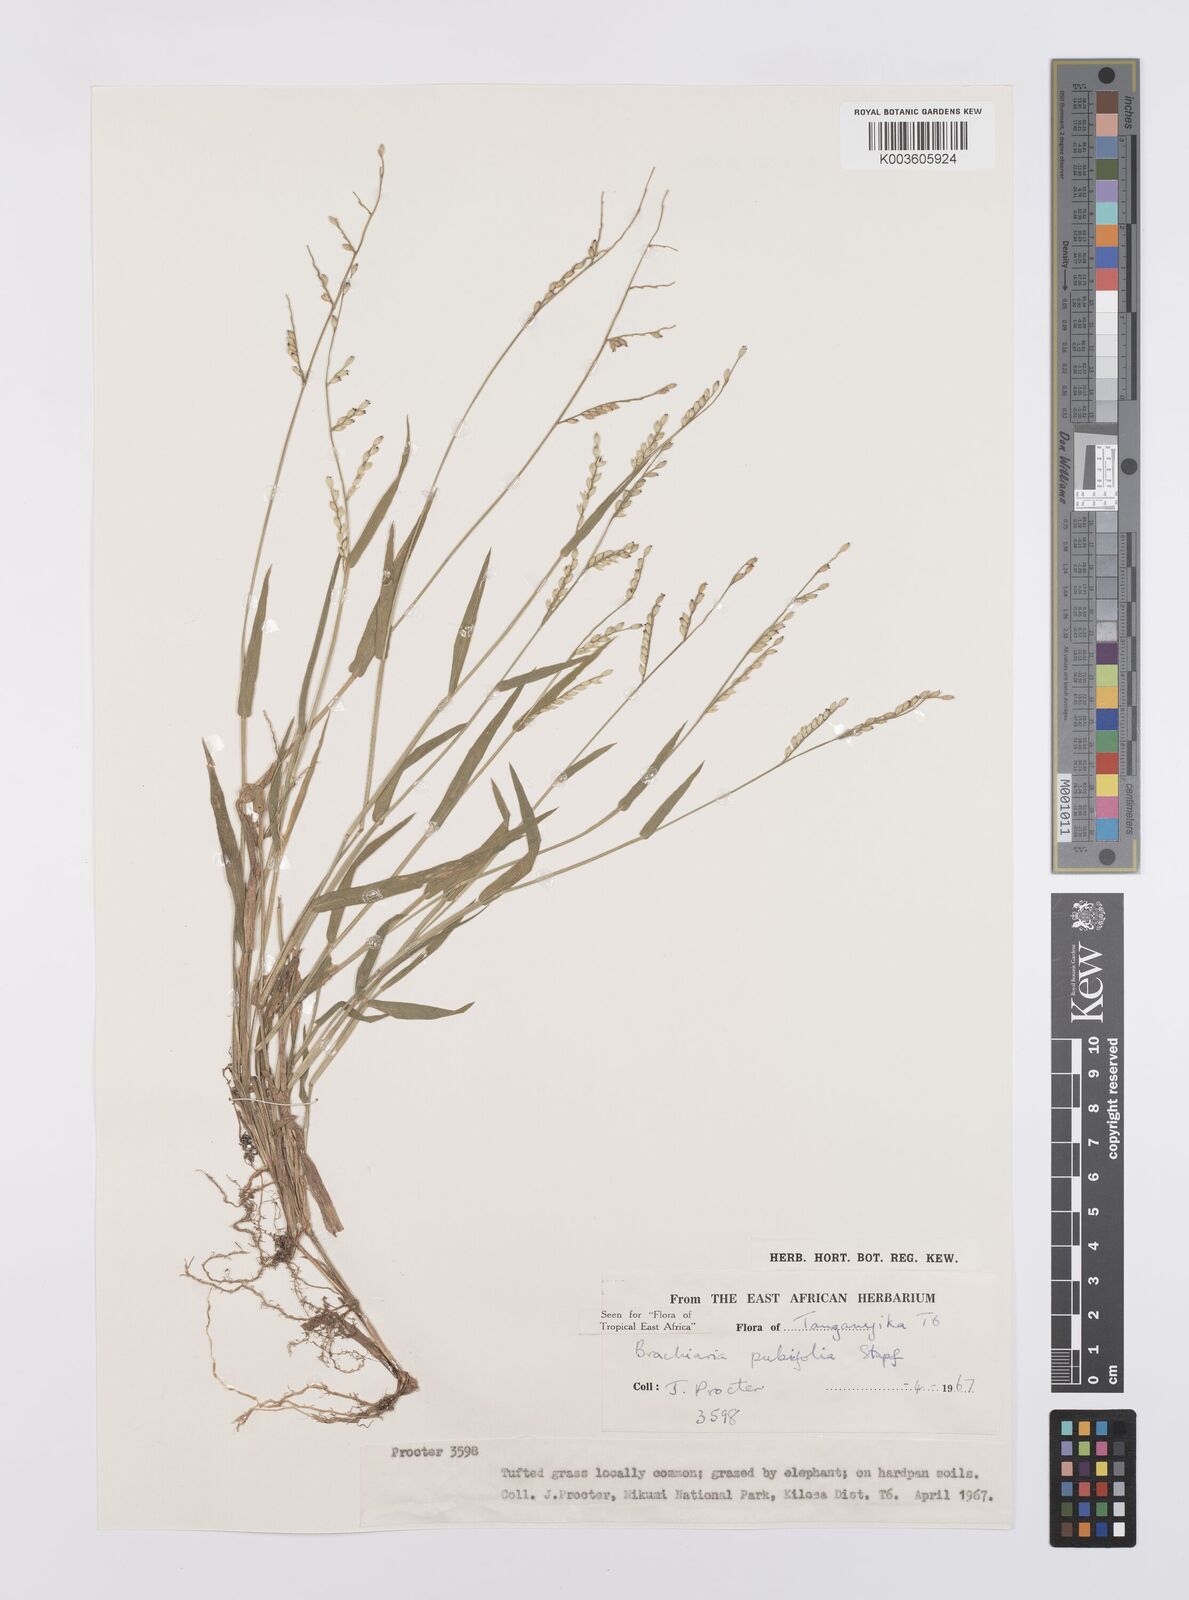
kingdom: Plantae
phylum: Tracheophyta
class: Liliopsida
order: Poales
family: Poaceae
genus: Urochloa
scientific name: Urochloa xantholeuca
